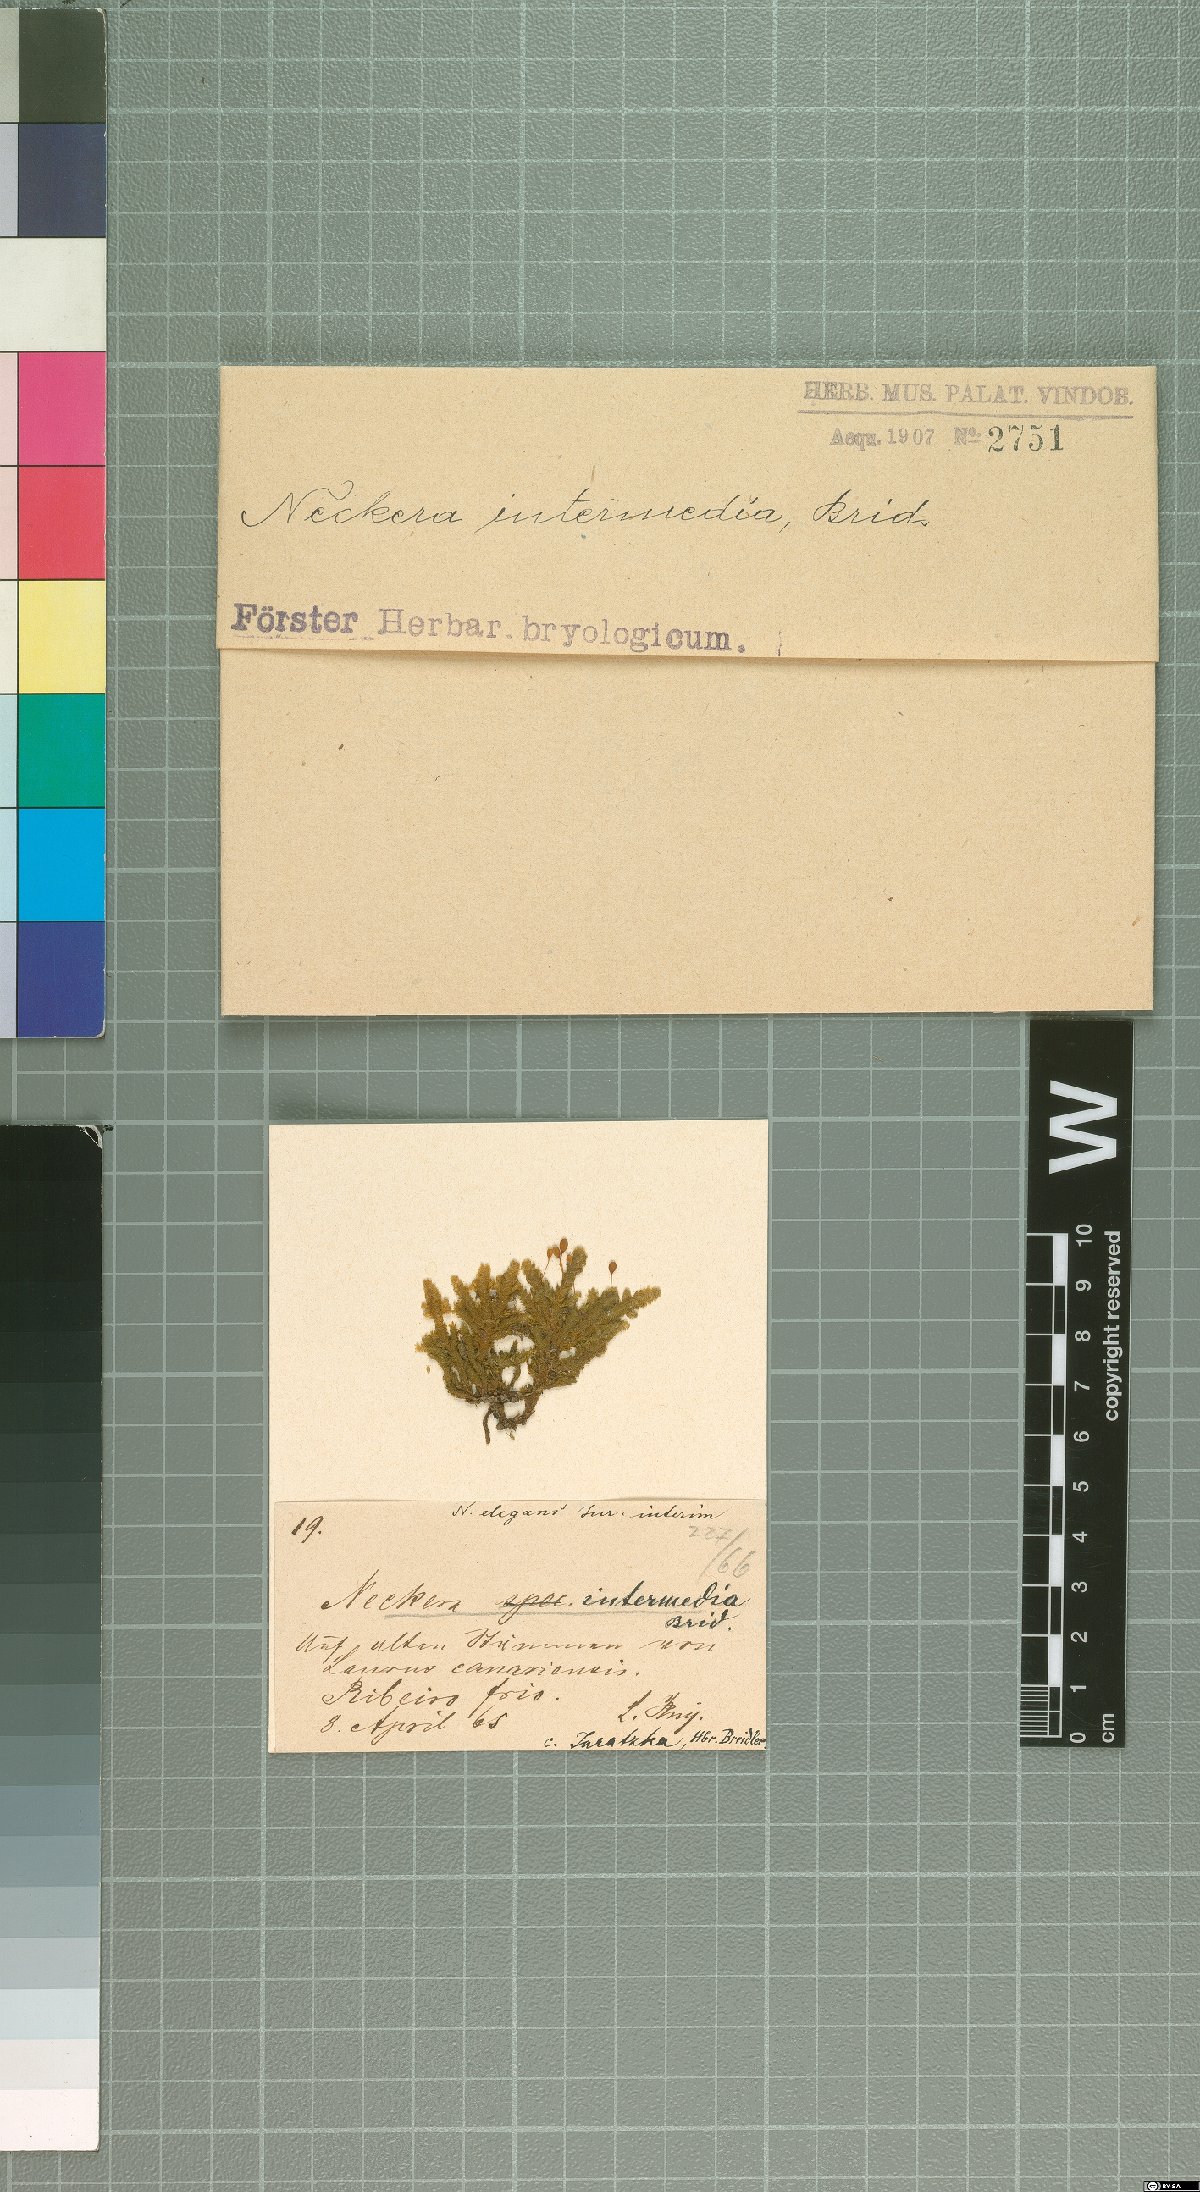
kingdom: Plantae
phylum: Bryophyta
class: Bryopsida
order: Hypnales
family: Neckeraceae
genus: Exsertotheca
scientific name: Exsertotheca intermedia
